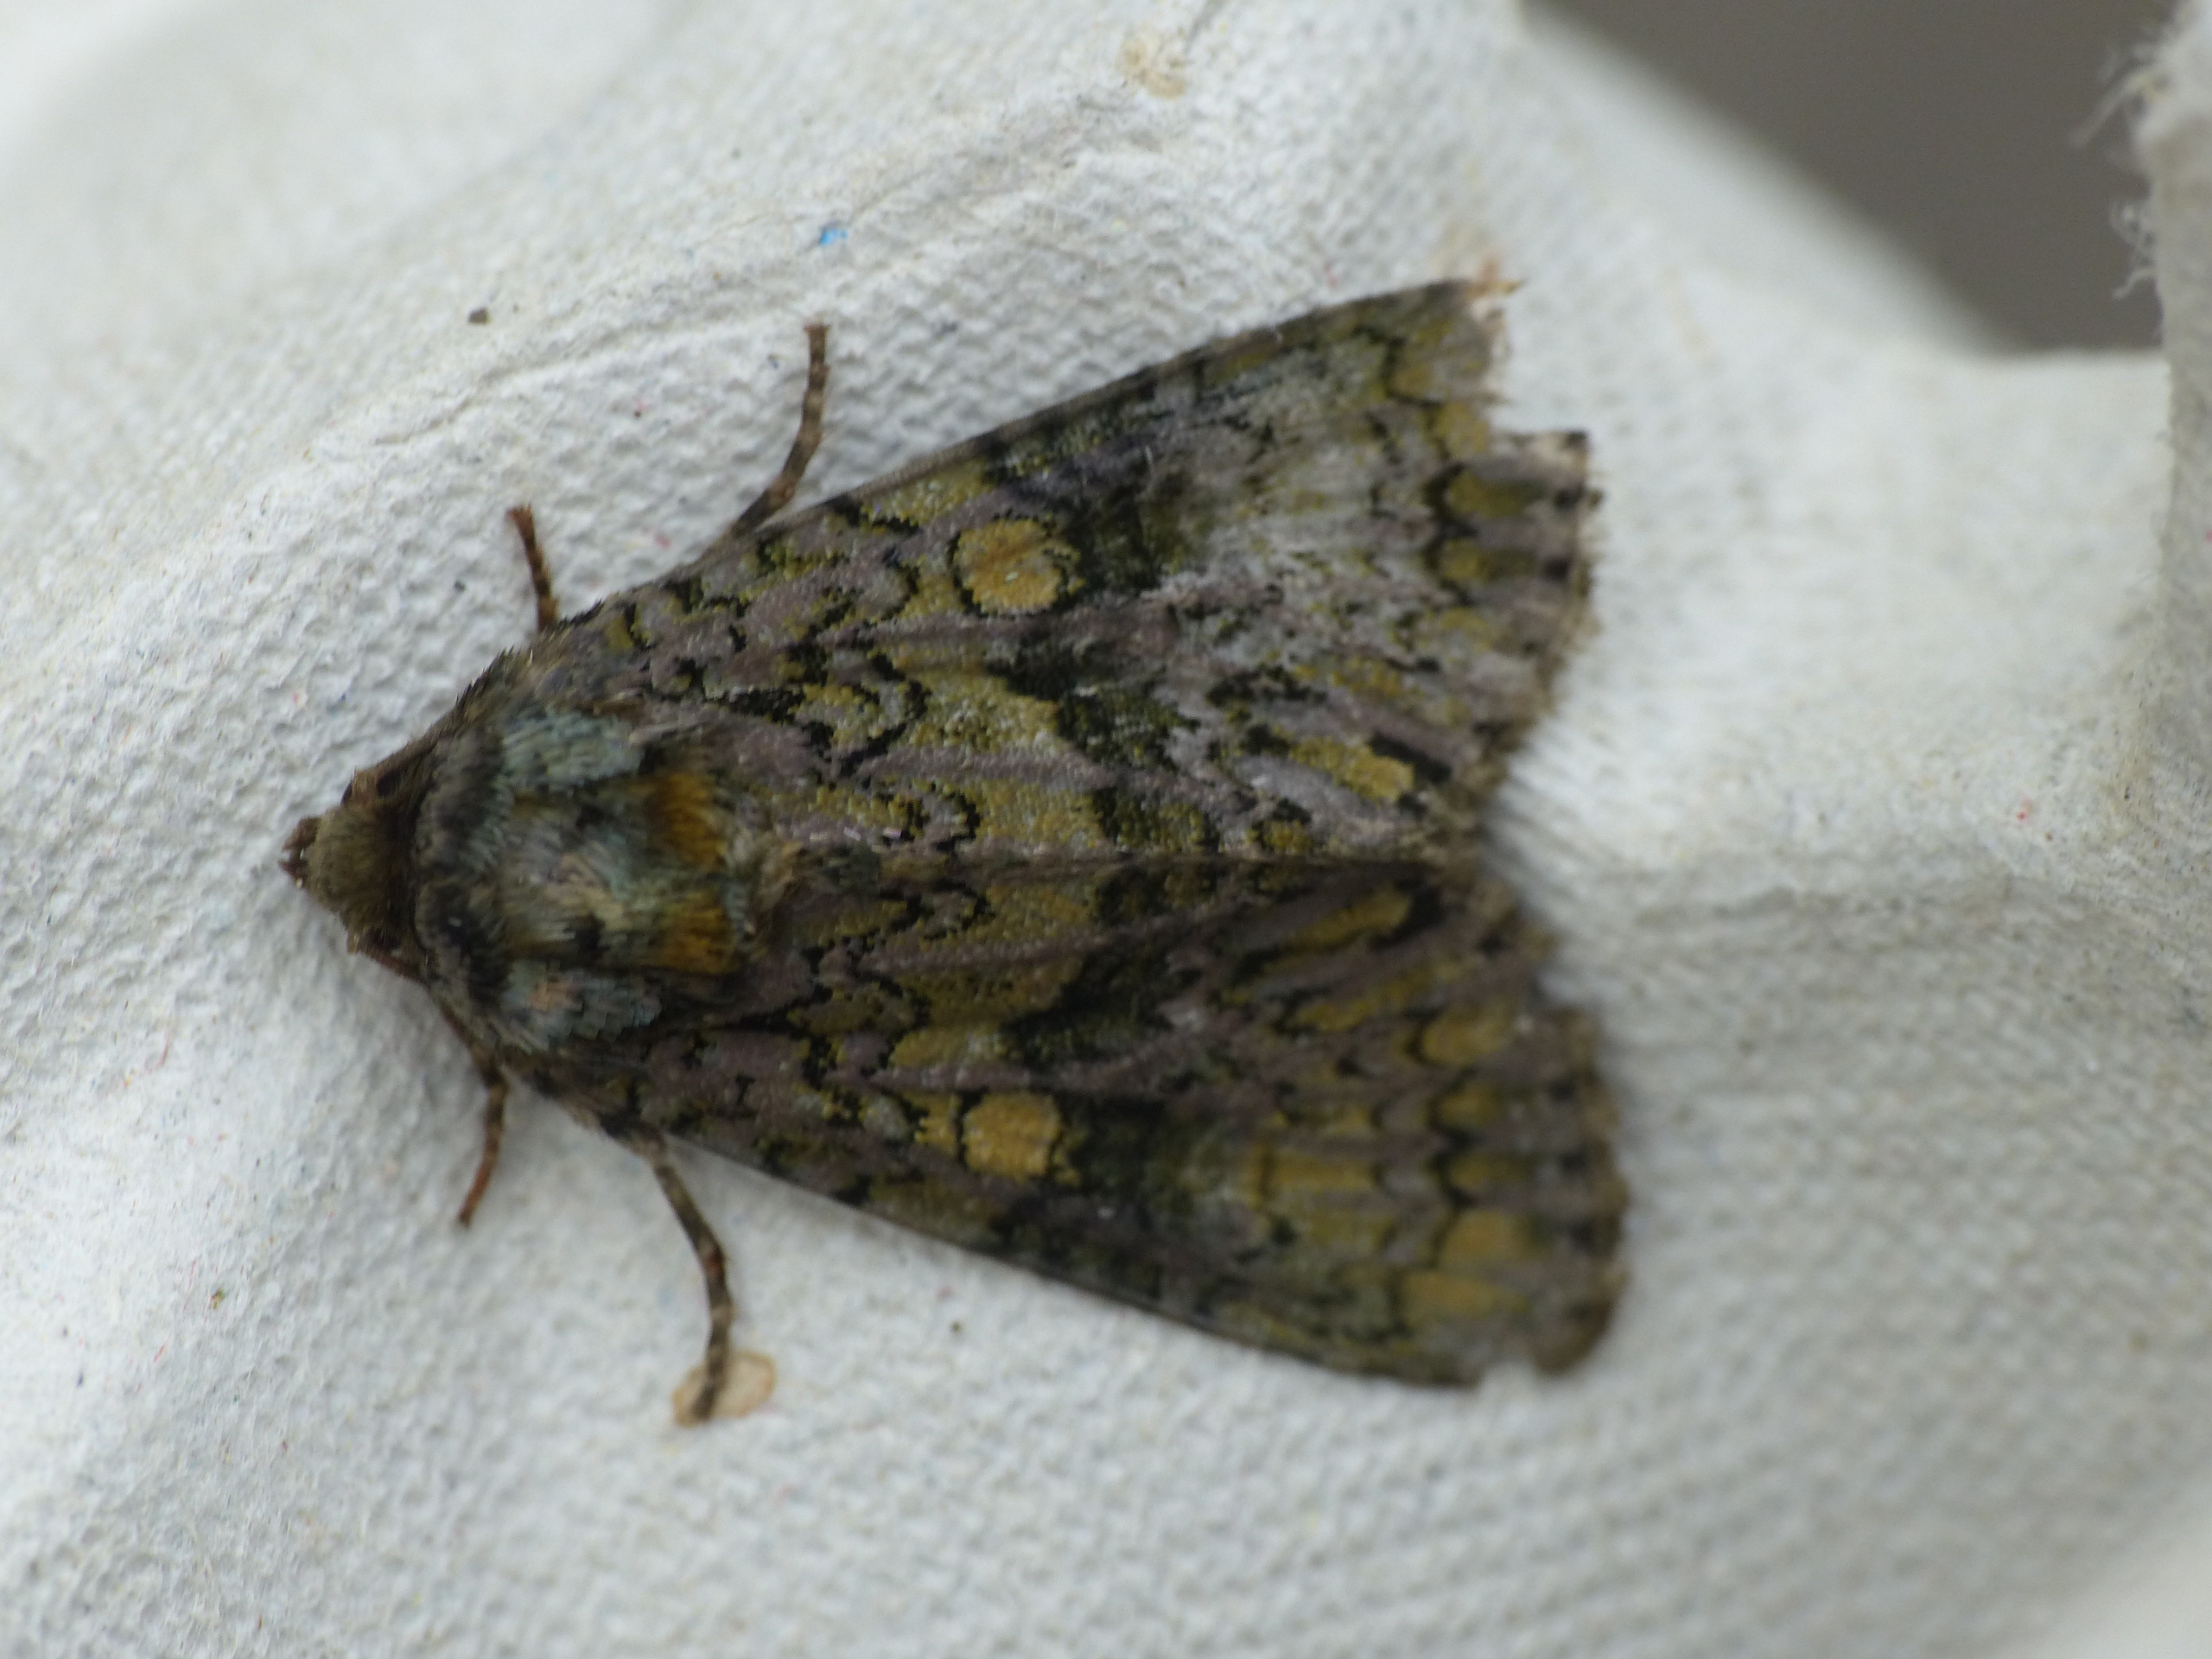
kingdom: Animalia
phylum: Arthropoda
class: Insecta
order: Lepidoptera
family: Noctuidae
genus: Craniophora
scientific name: Craniophora ligustri
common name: Askeugle
